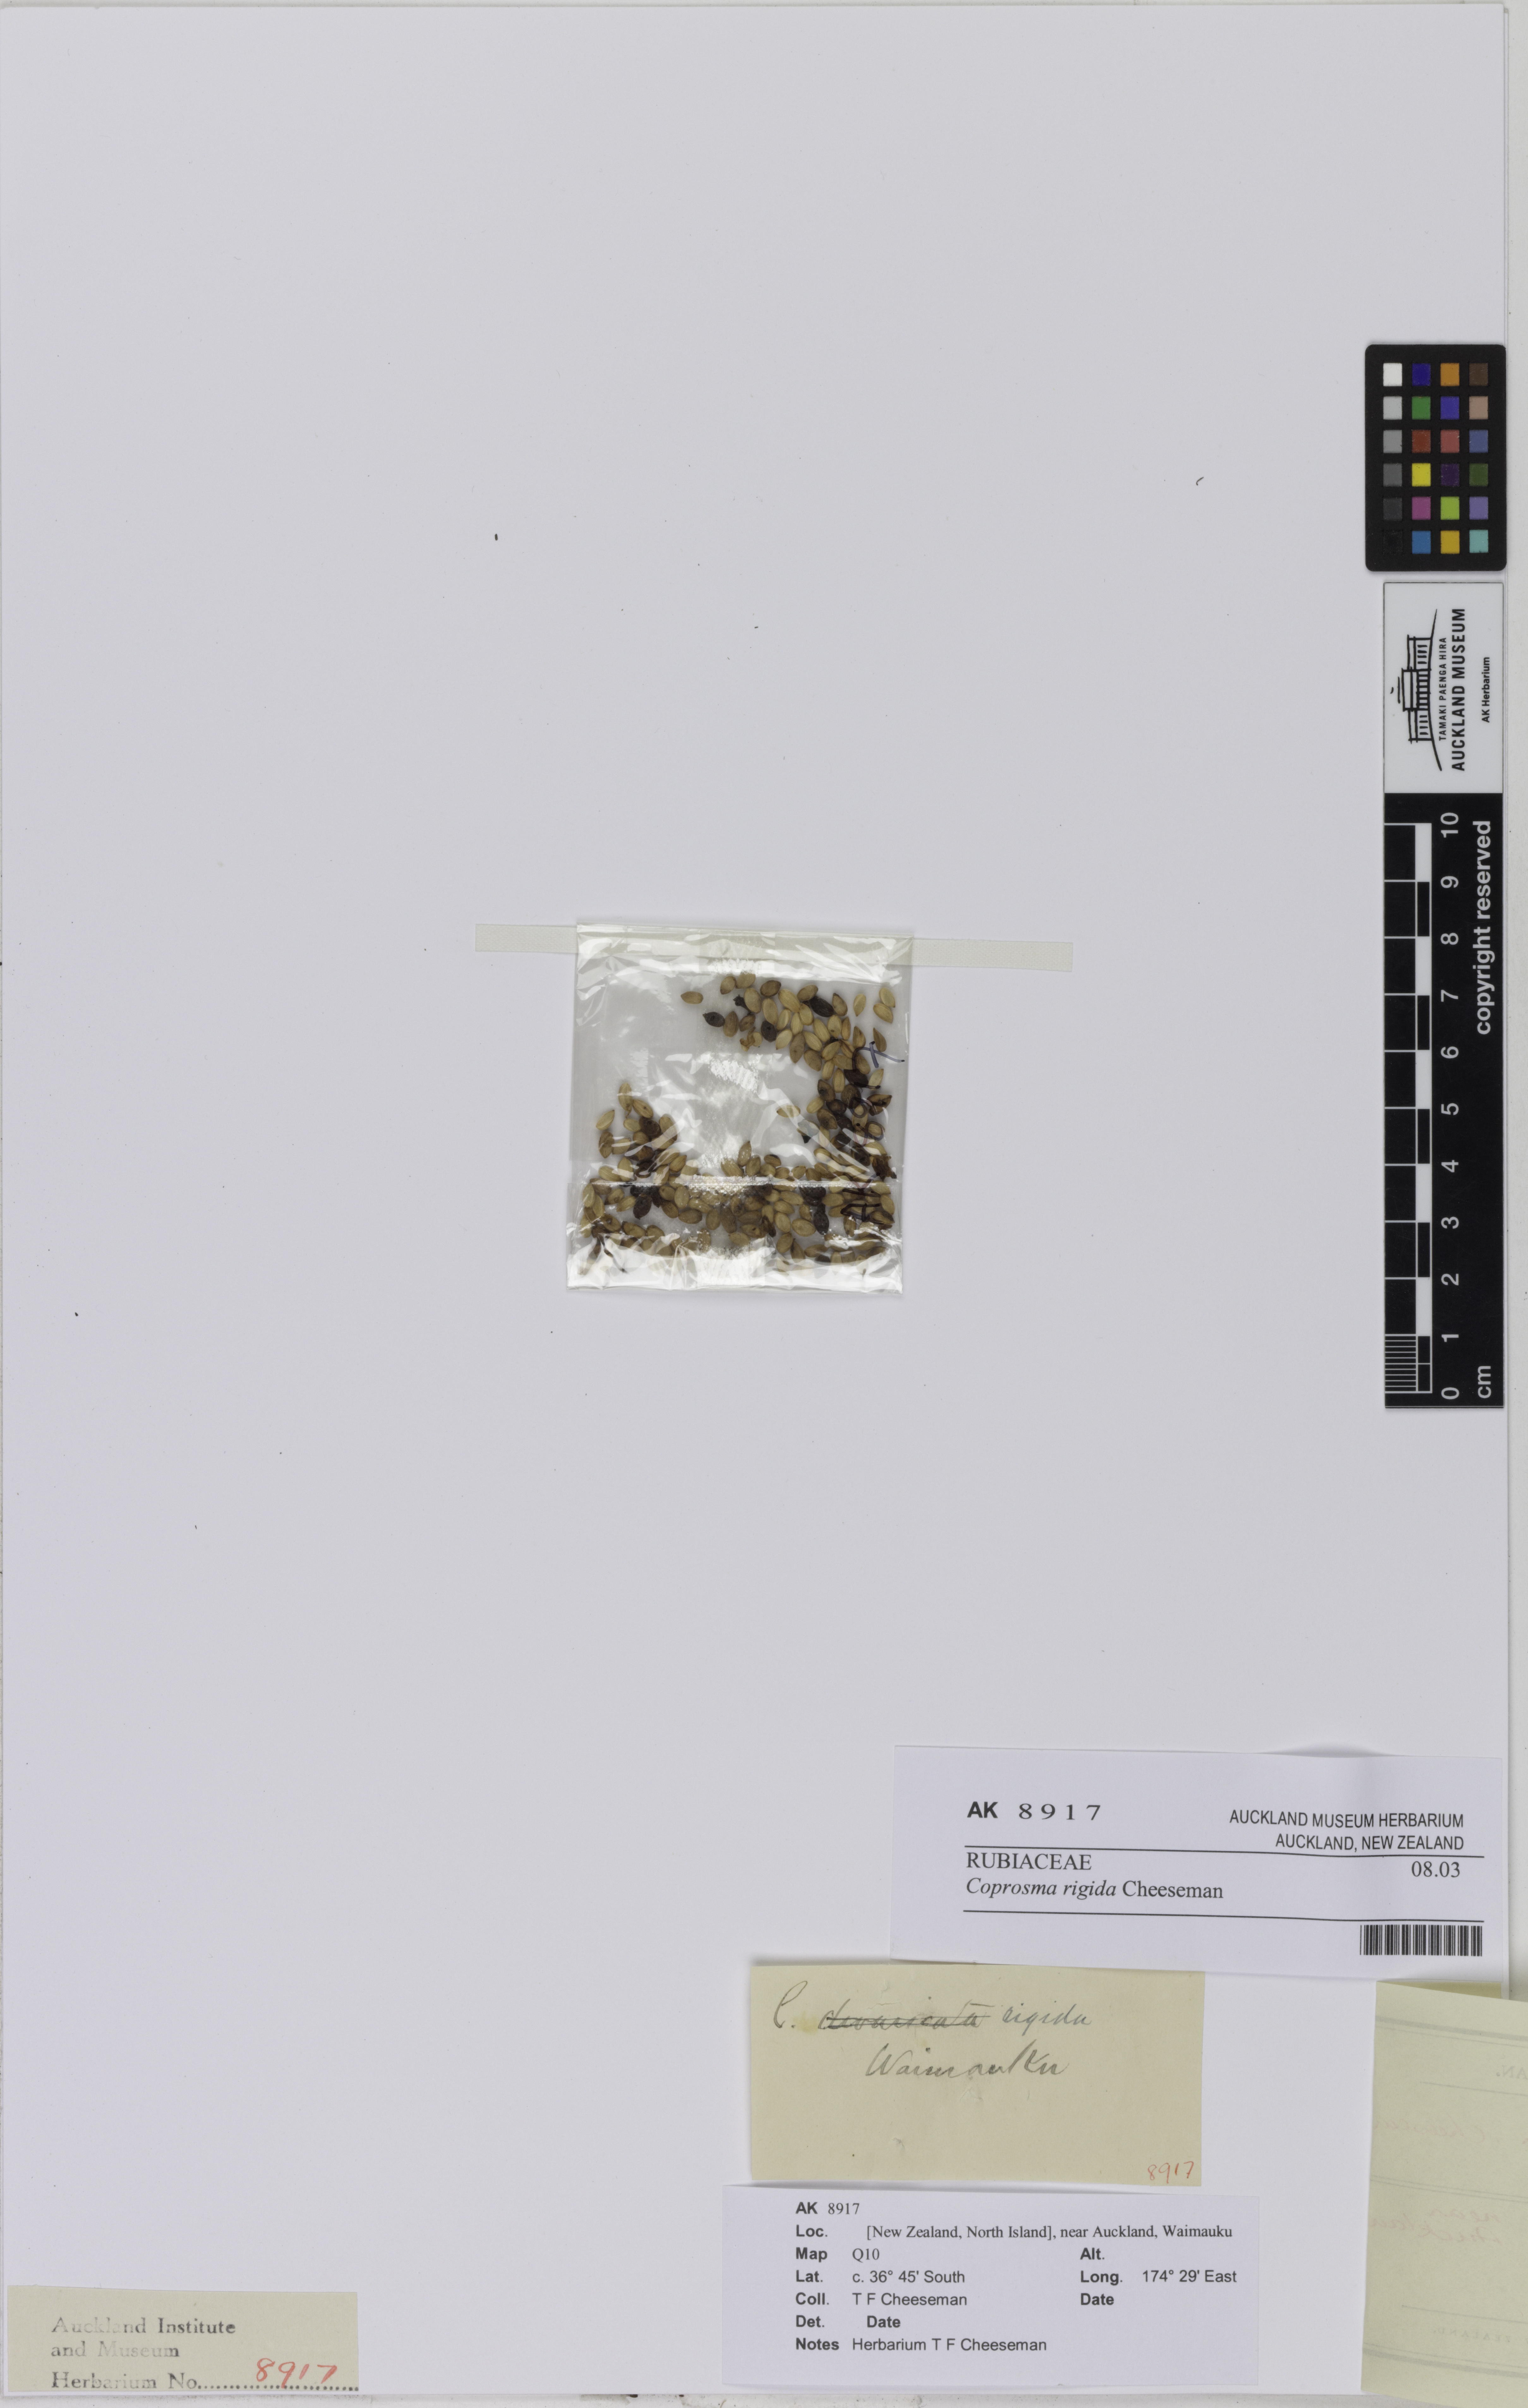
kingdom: Plantae
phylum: Tracheophyta
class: Magnoliopsida
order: Gentianales
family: Rubiaceae
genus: Coprosma
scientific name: Coprosma rigida
